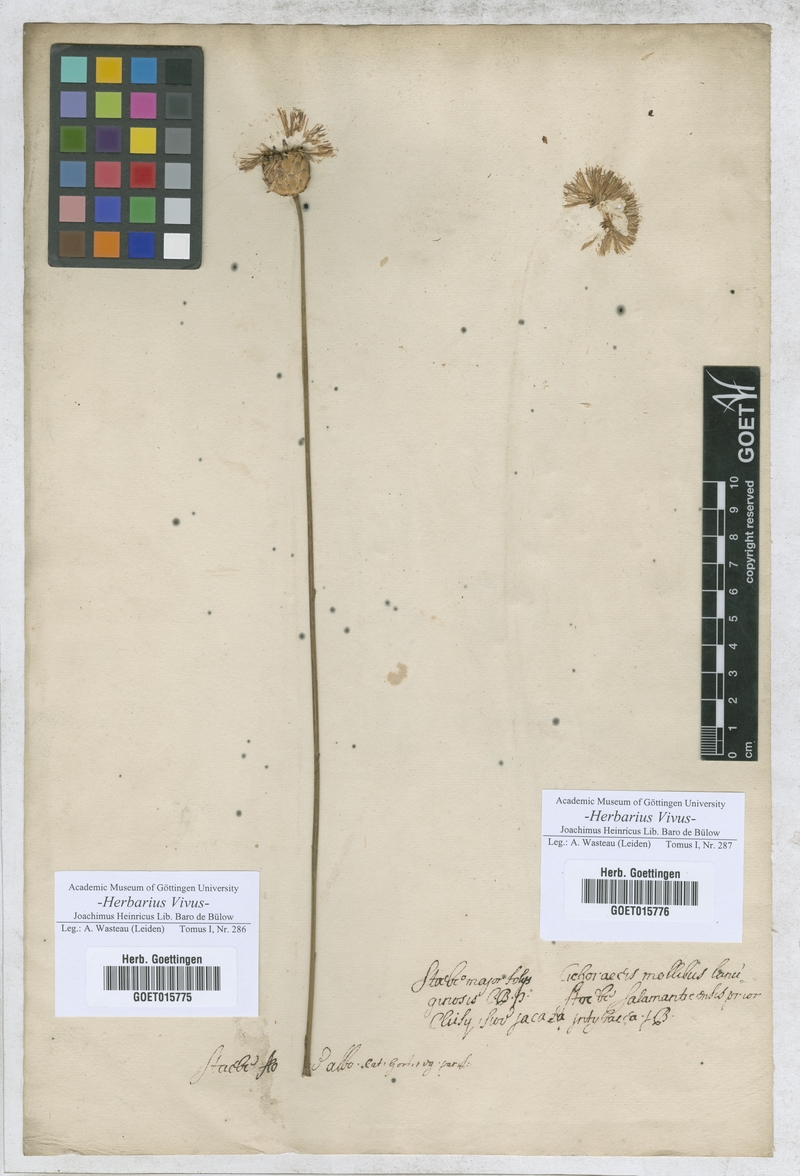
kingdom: Plantae
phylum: Tracheophyta
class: Magnoliopsida
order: Asterales
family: Asteraceae
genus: Stoebe
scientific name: Stoebe
